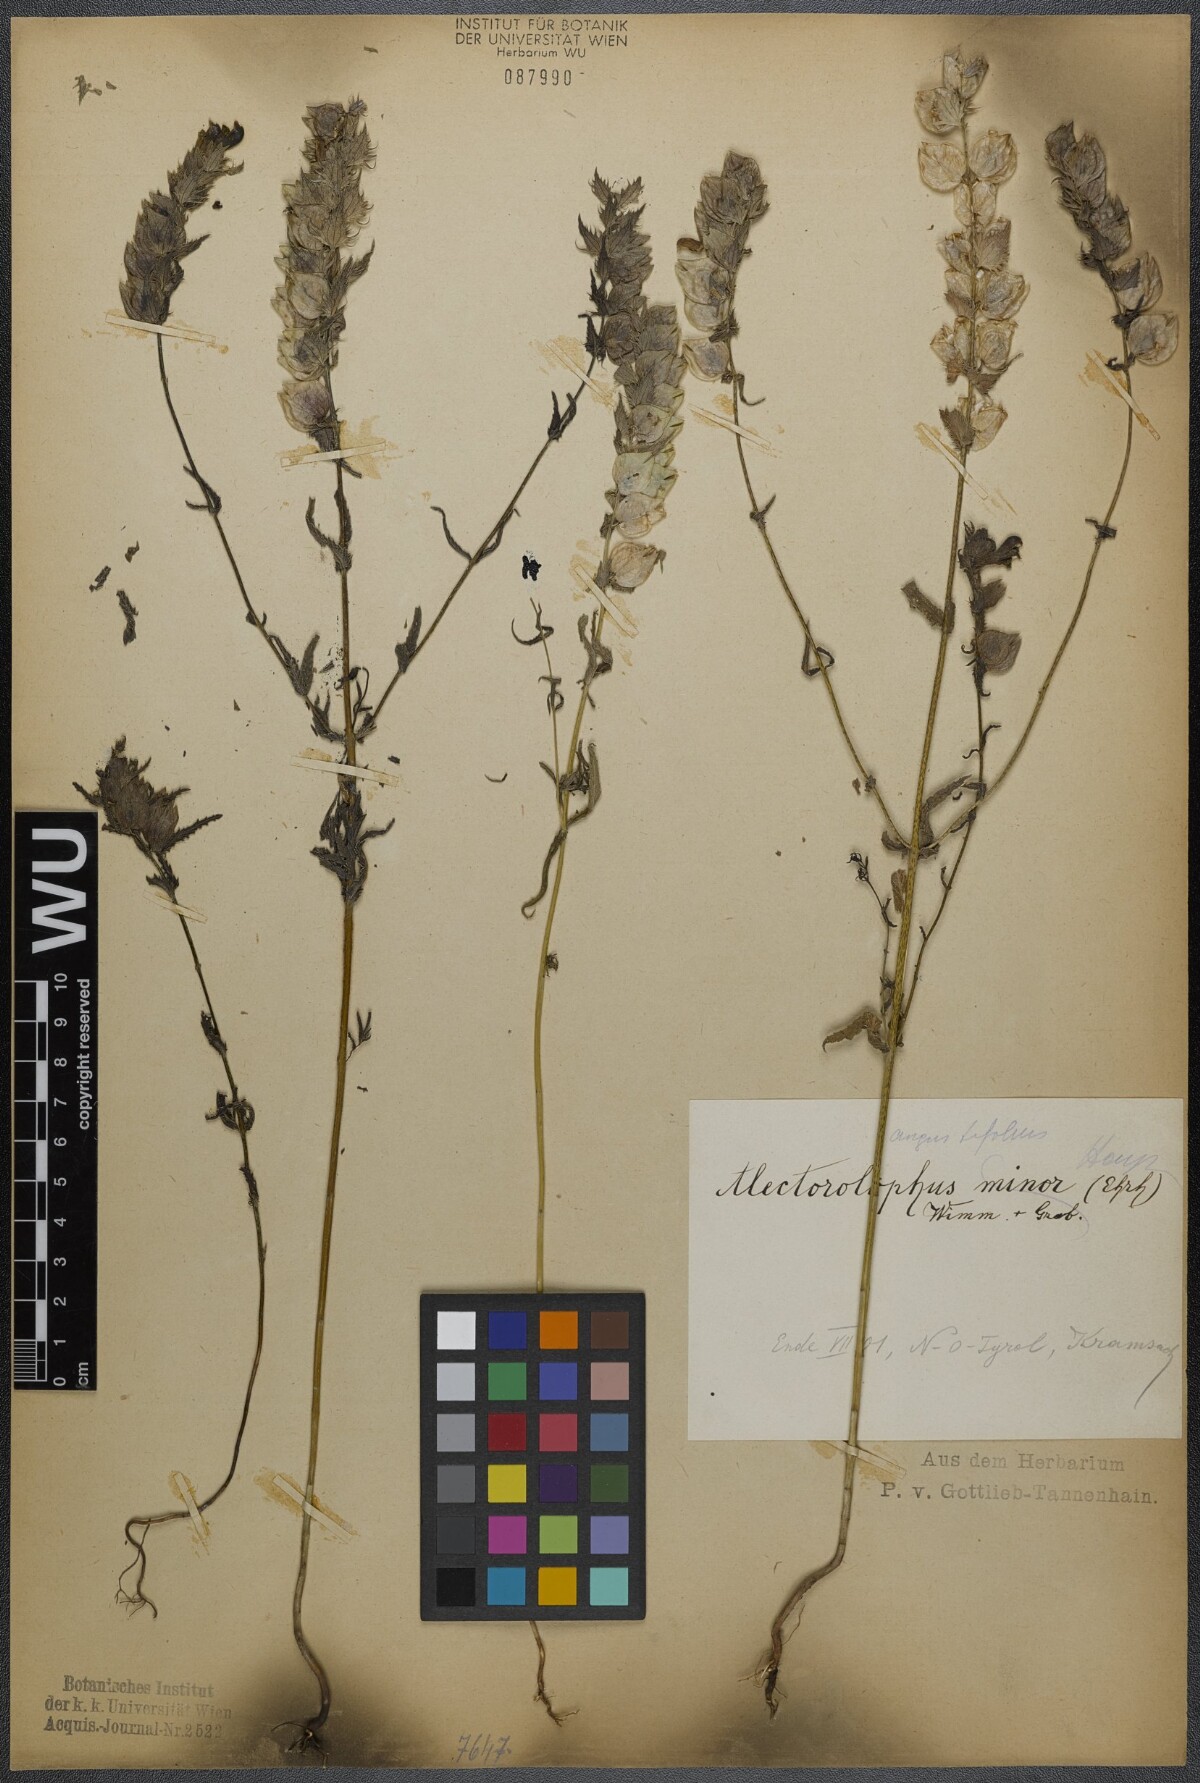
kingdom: Plantae
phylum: Tracheophyta
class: Magnoliopsida
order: Lamiales
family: Orobanchaceae
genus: Rhinanthus
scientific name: Rhinanthus
